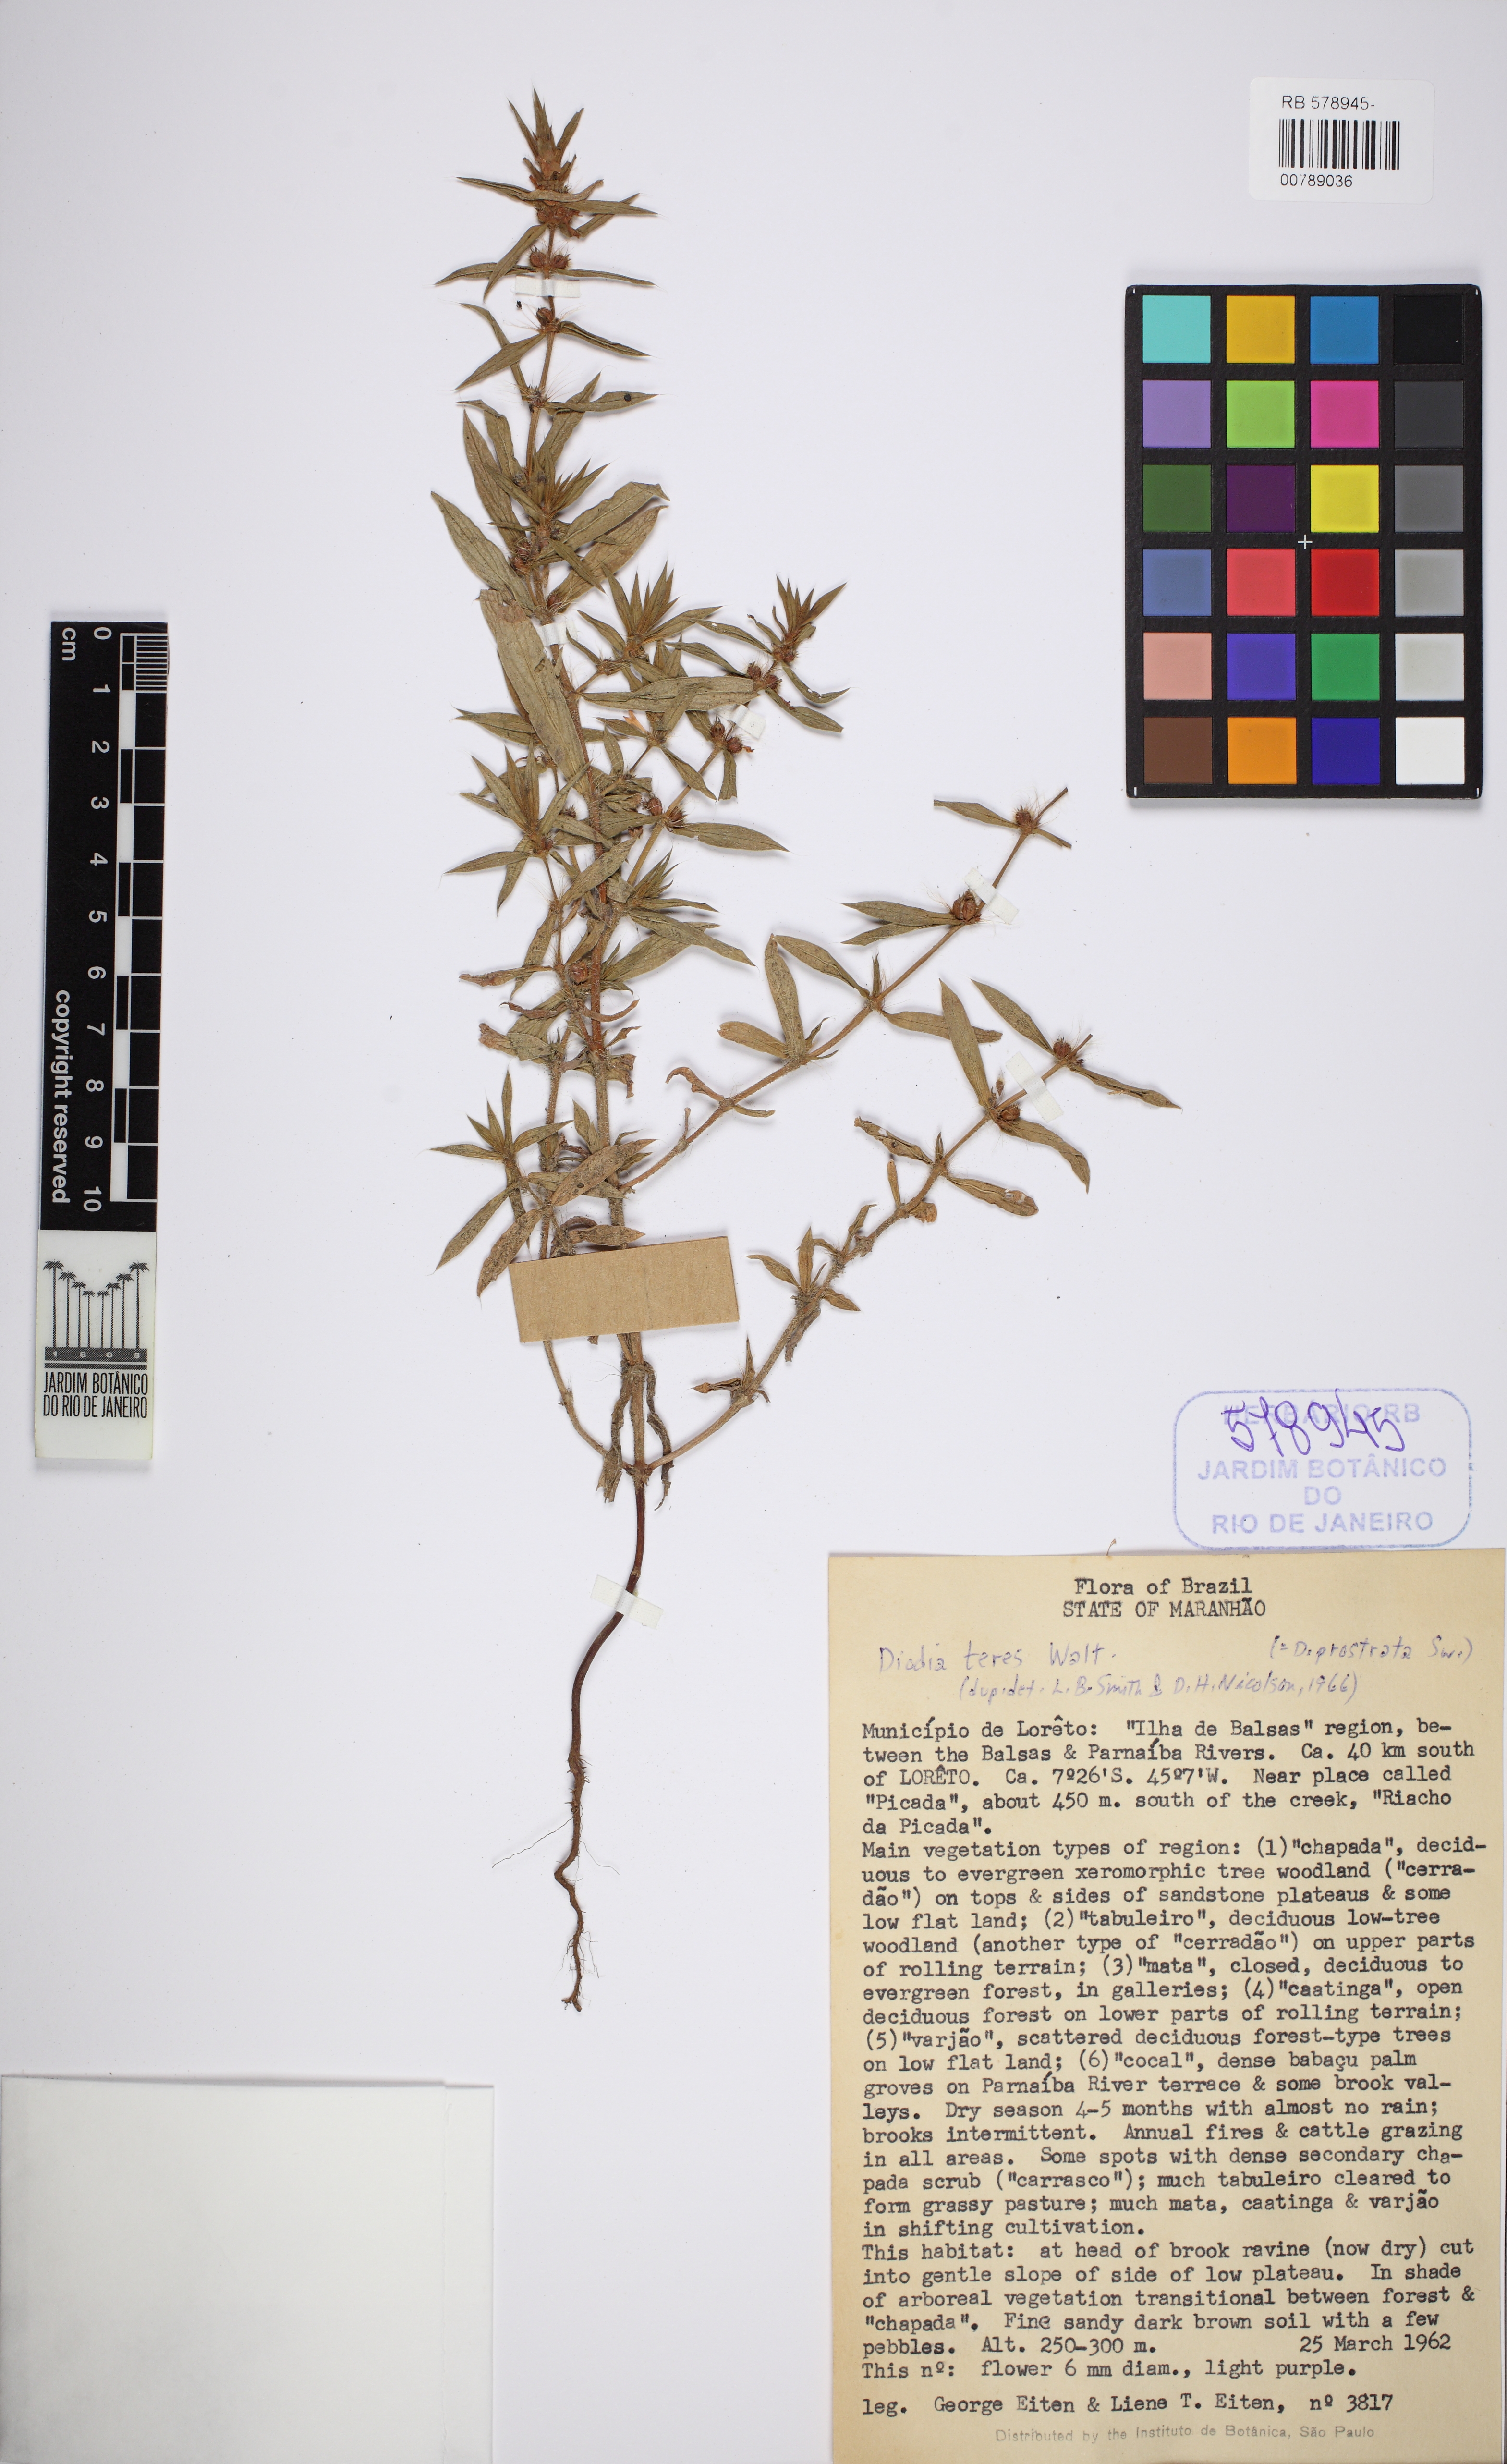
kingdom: Plantae
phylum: Tracheophyta
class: Magnoliopsida
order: Gentianales
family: Rubiaceae
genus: Hexasepalum
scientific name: Hexasepalum teres
